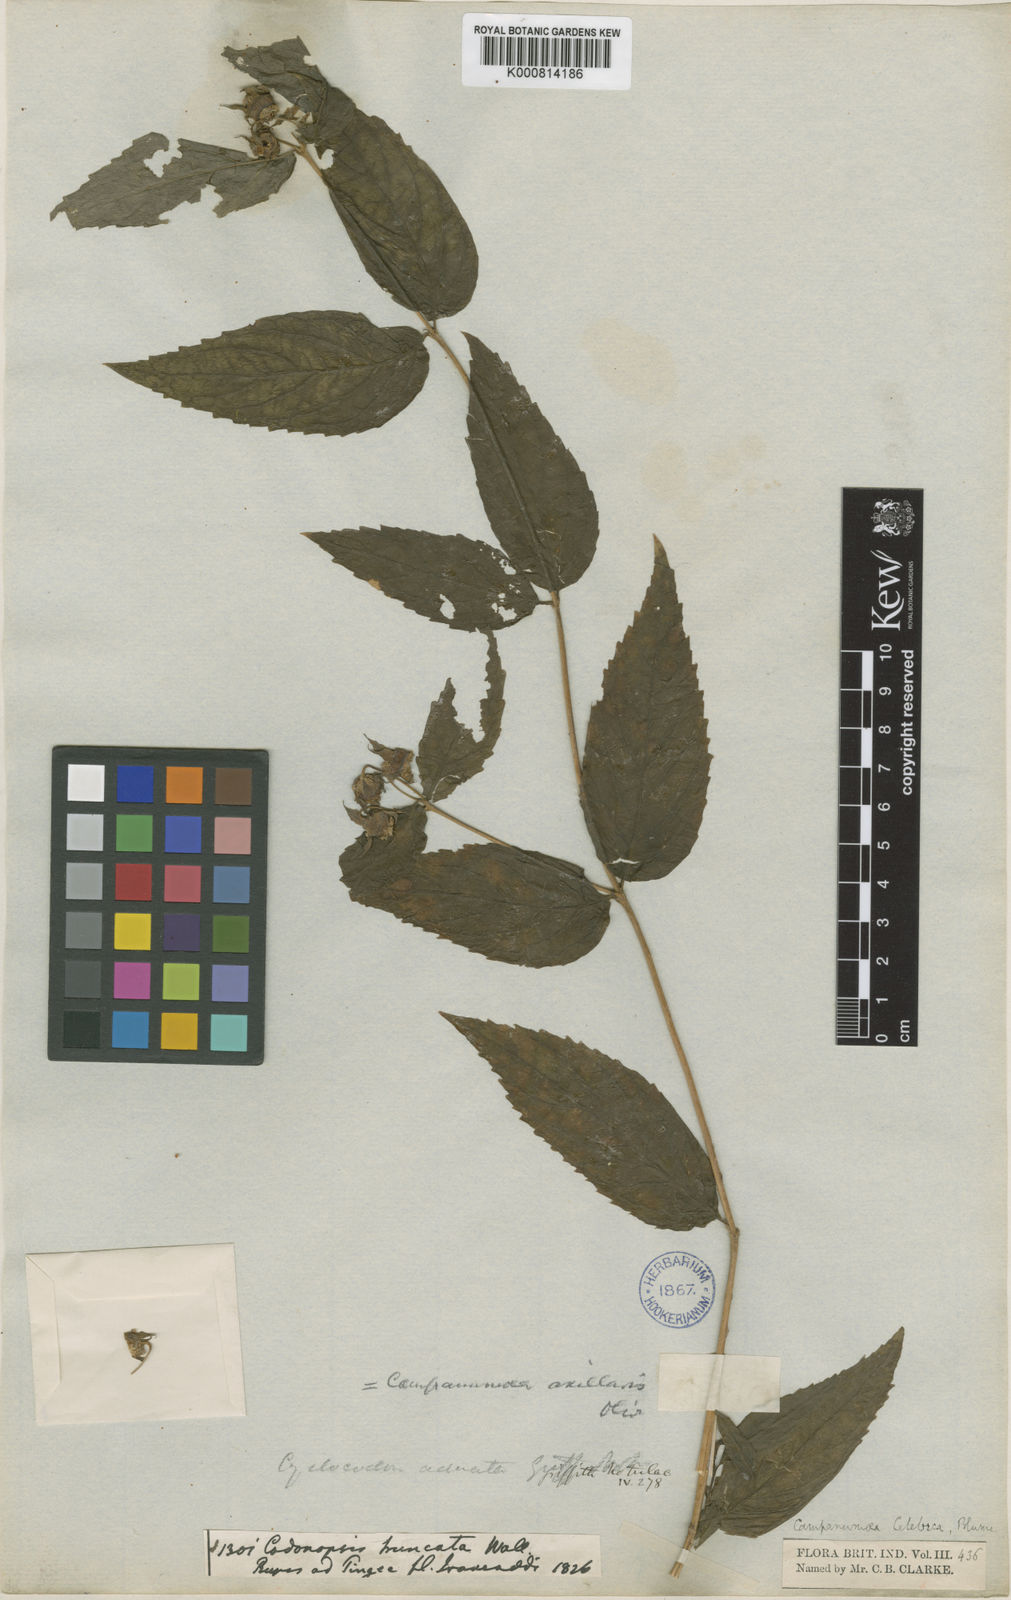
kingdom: Plantae
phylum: Tracheophyta
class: Magnoliopsida
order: Asterales
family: Campanulaceae
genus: Cyclocodon
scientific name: Cyclocodon lancifolius
